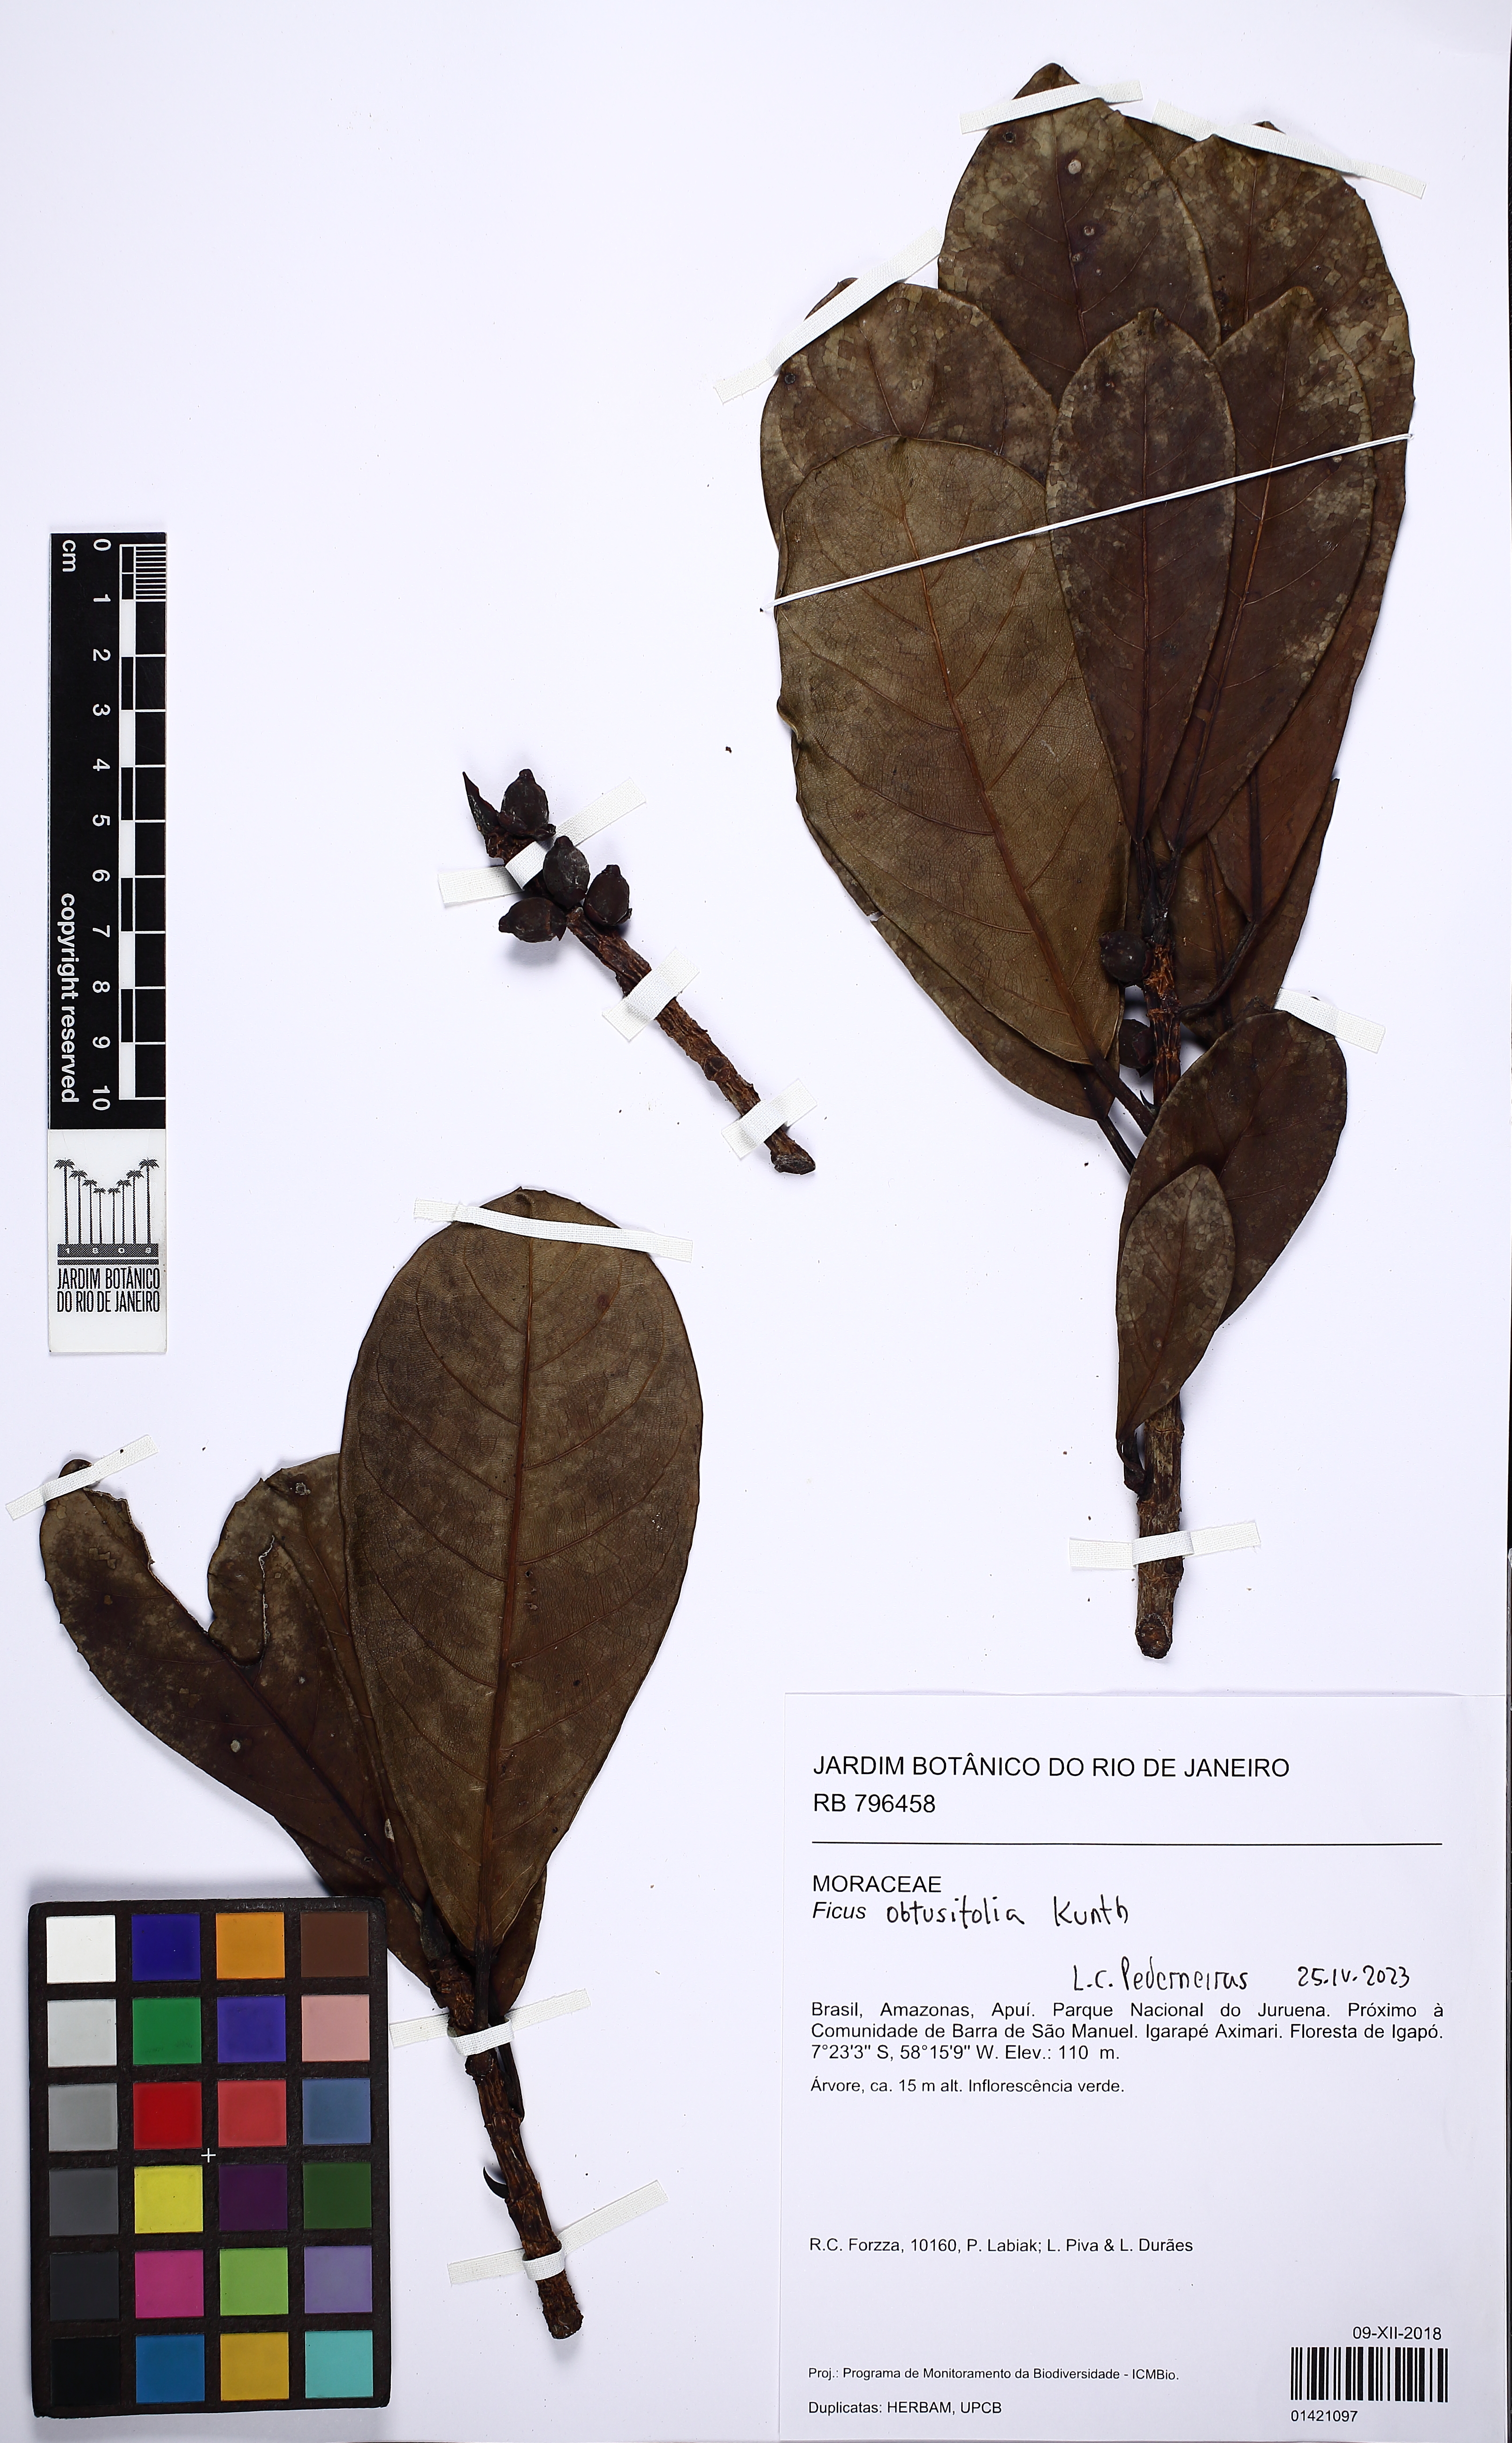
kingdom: Plantae
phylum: Tracheophyta
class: Magnoliopsida
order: Rosales
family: Moraceae
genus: Ficus
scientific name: Ficus obtusifolia
